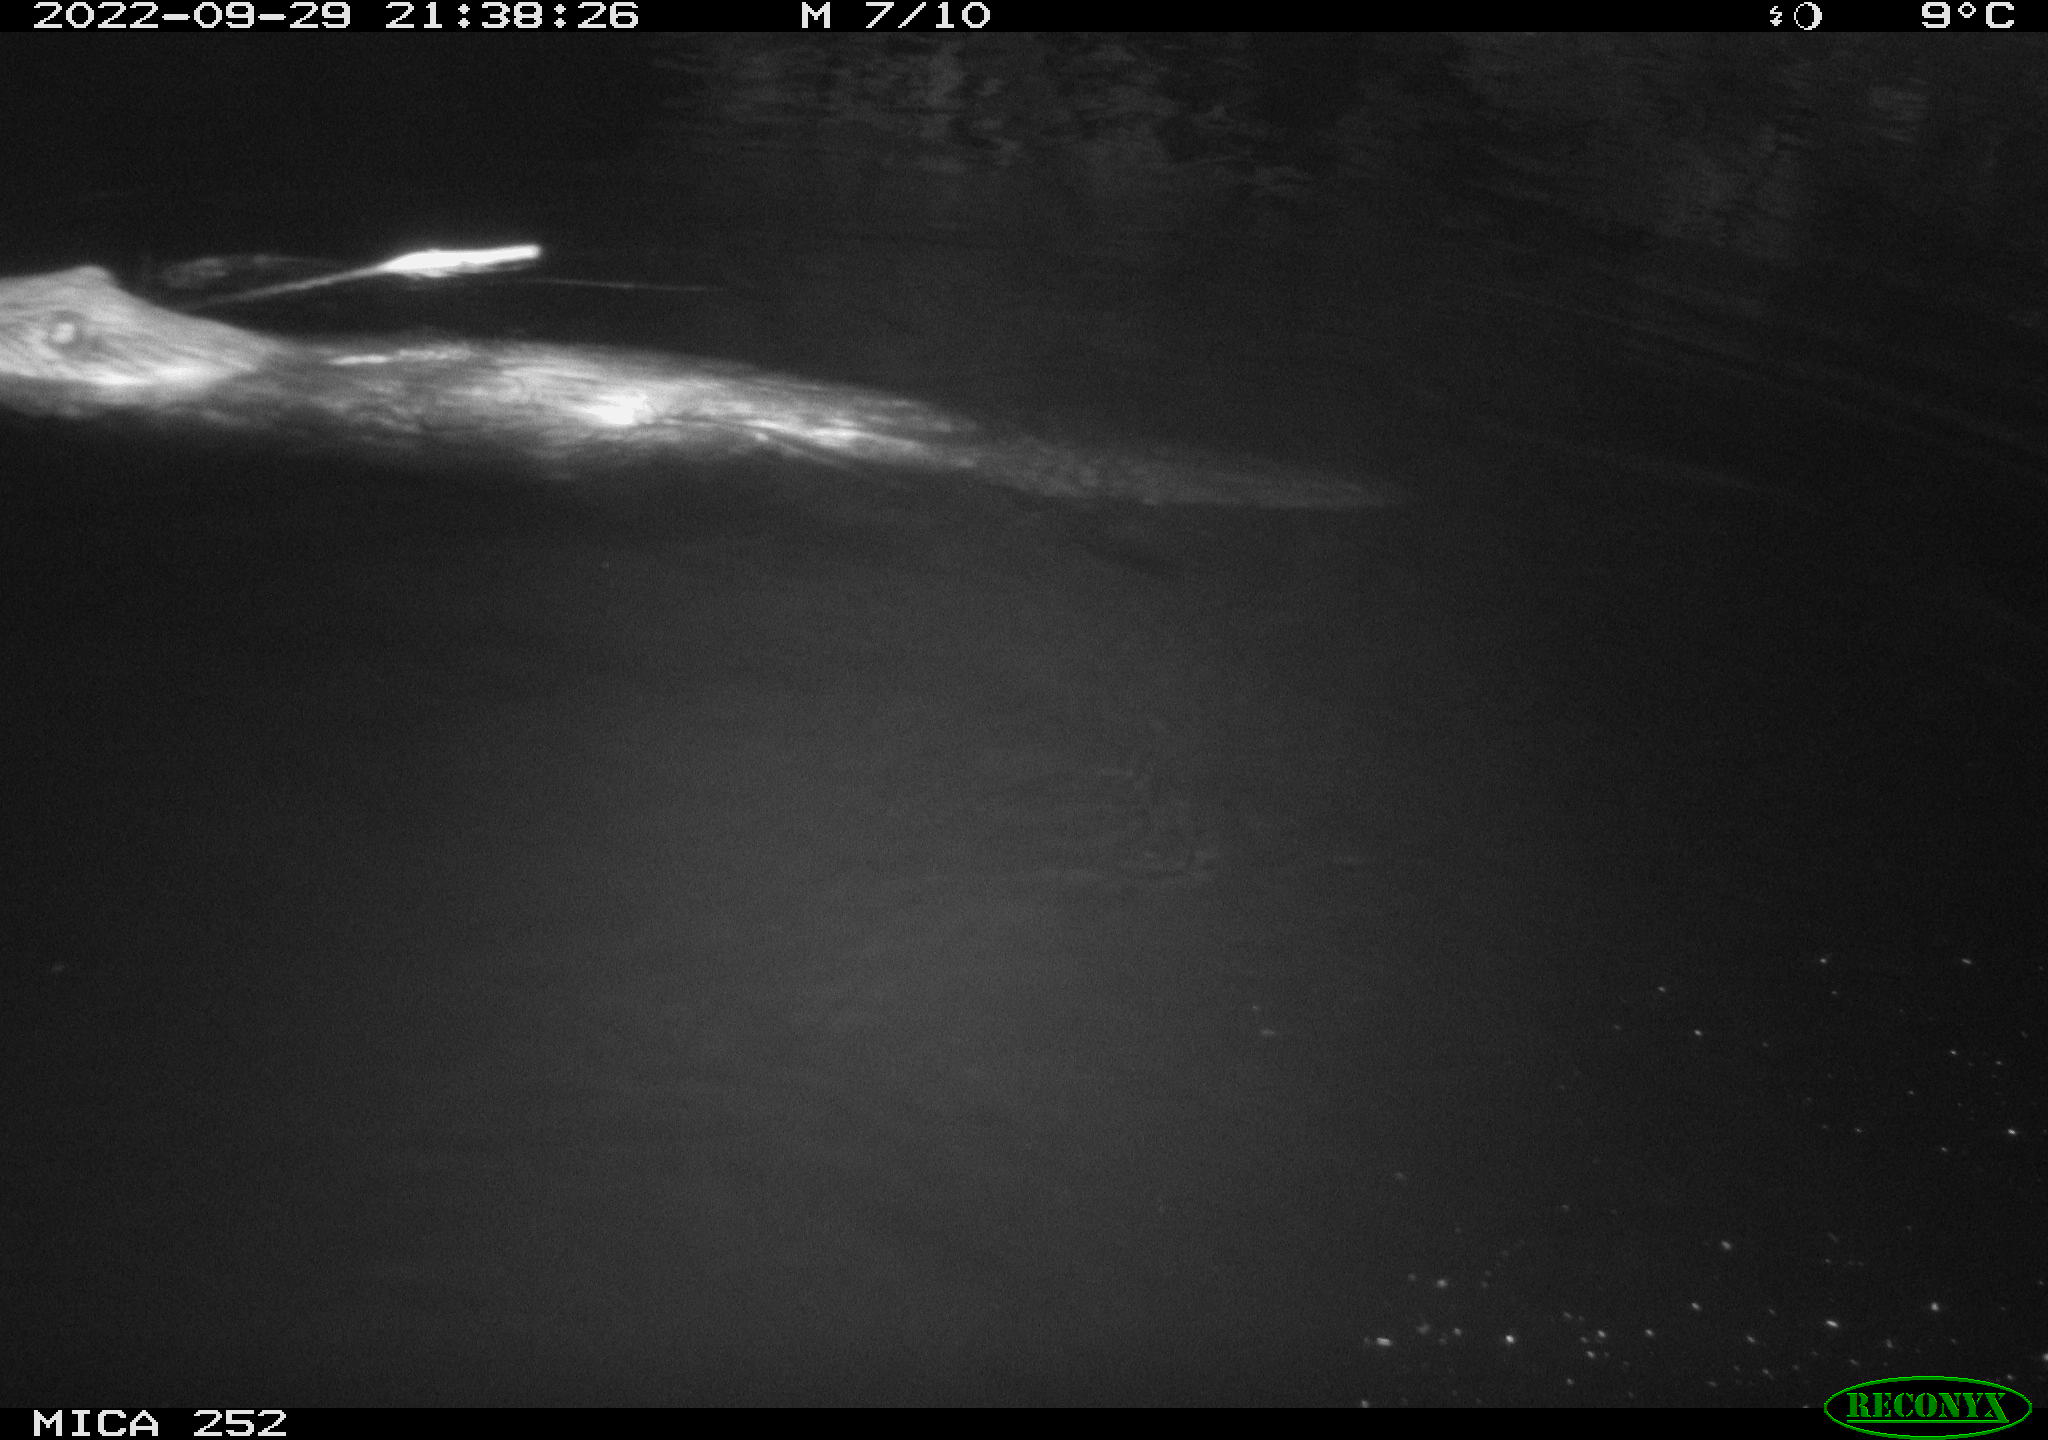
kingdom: Animalia
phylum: Chordata
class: Mammalia
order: Rodentia
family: Castoridae
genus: Castor
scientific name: Castor fiber
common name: Eurasian beaver
